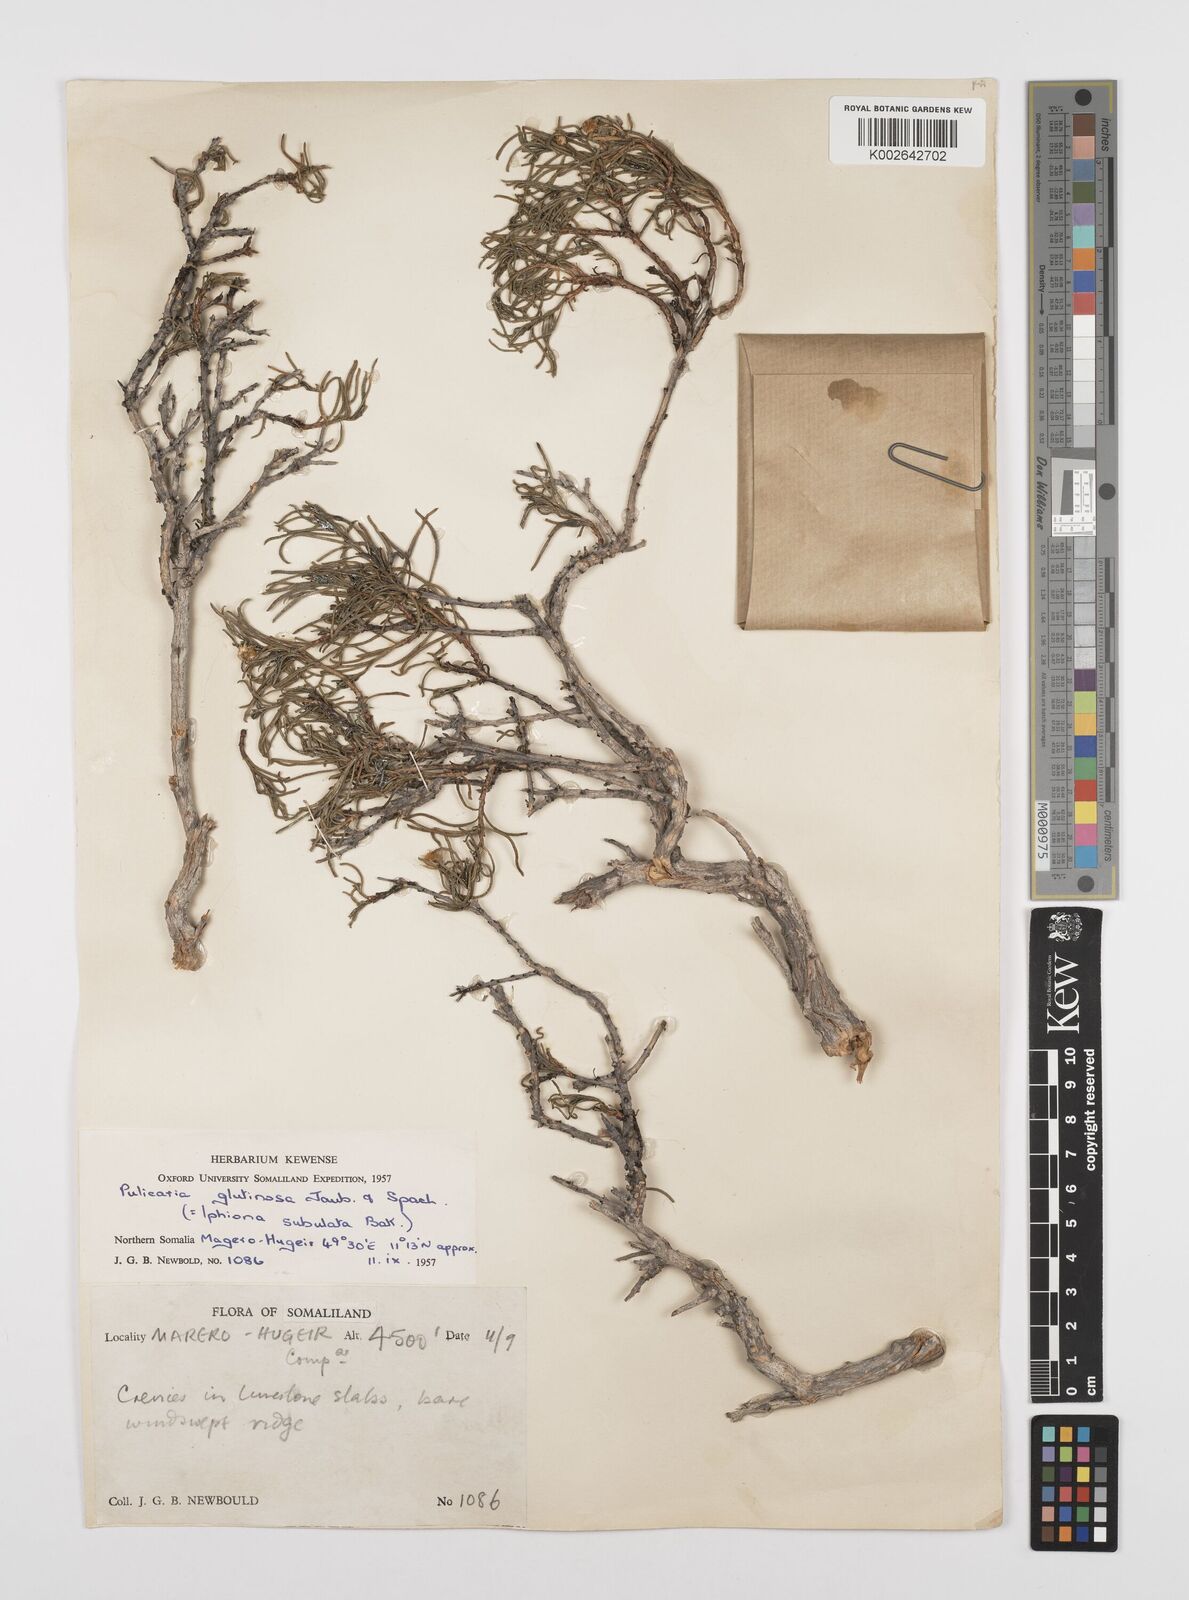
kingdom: Plantae
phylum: Tracheophyta
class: Magnoliopsida
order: Asterales
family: Asteraceae
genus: Pulicaria
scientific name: Pulicaria glutinosa
